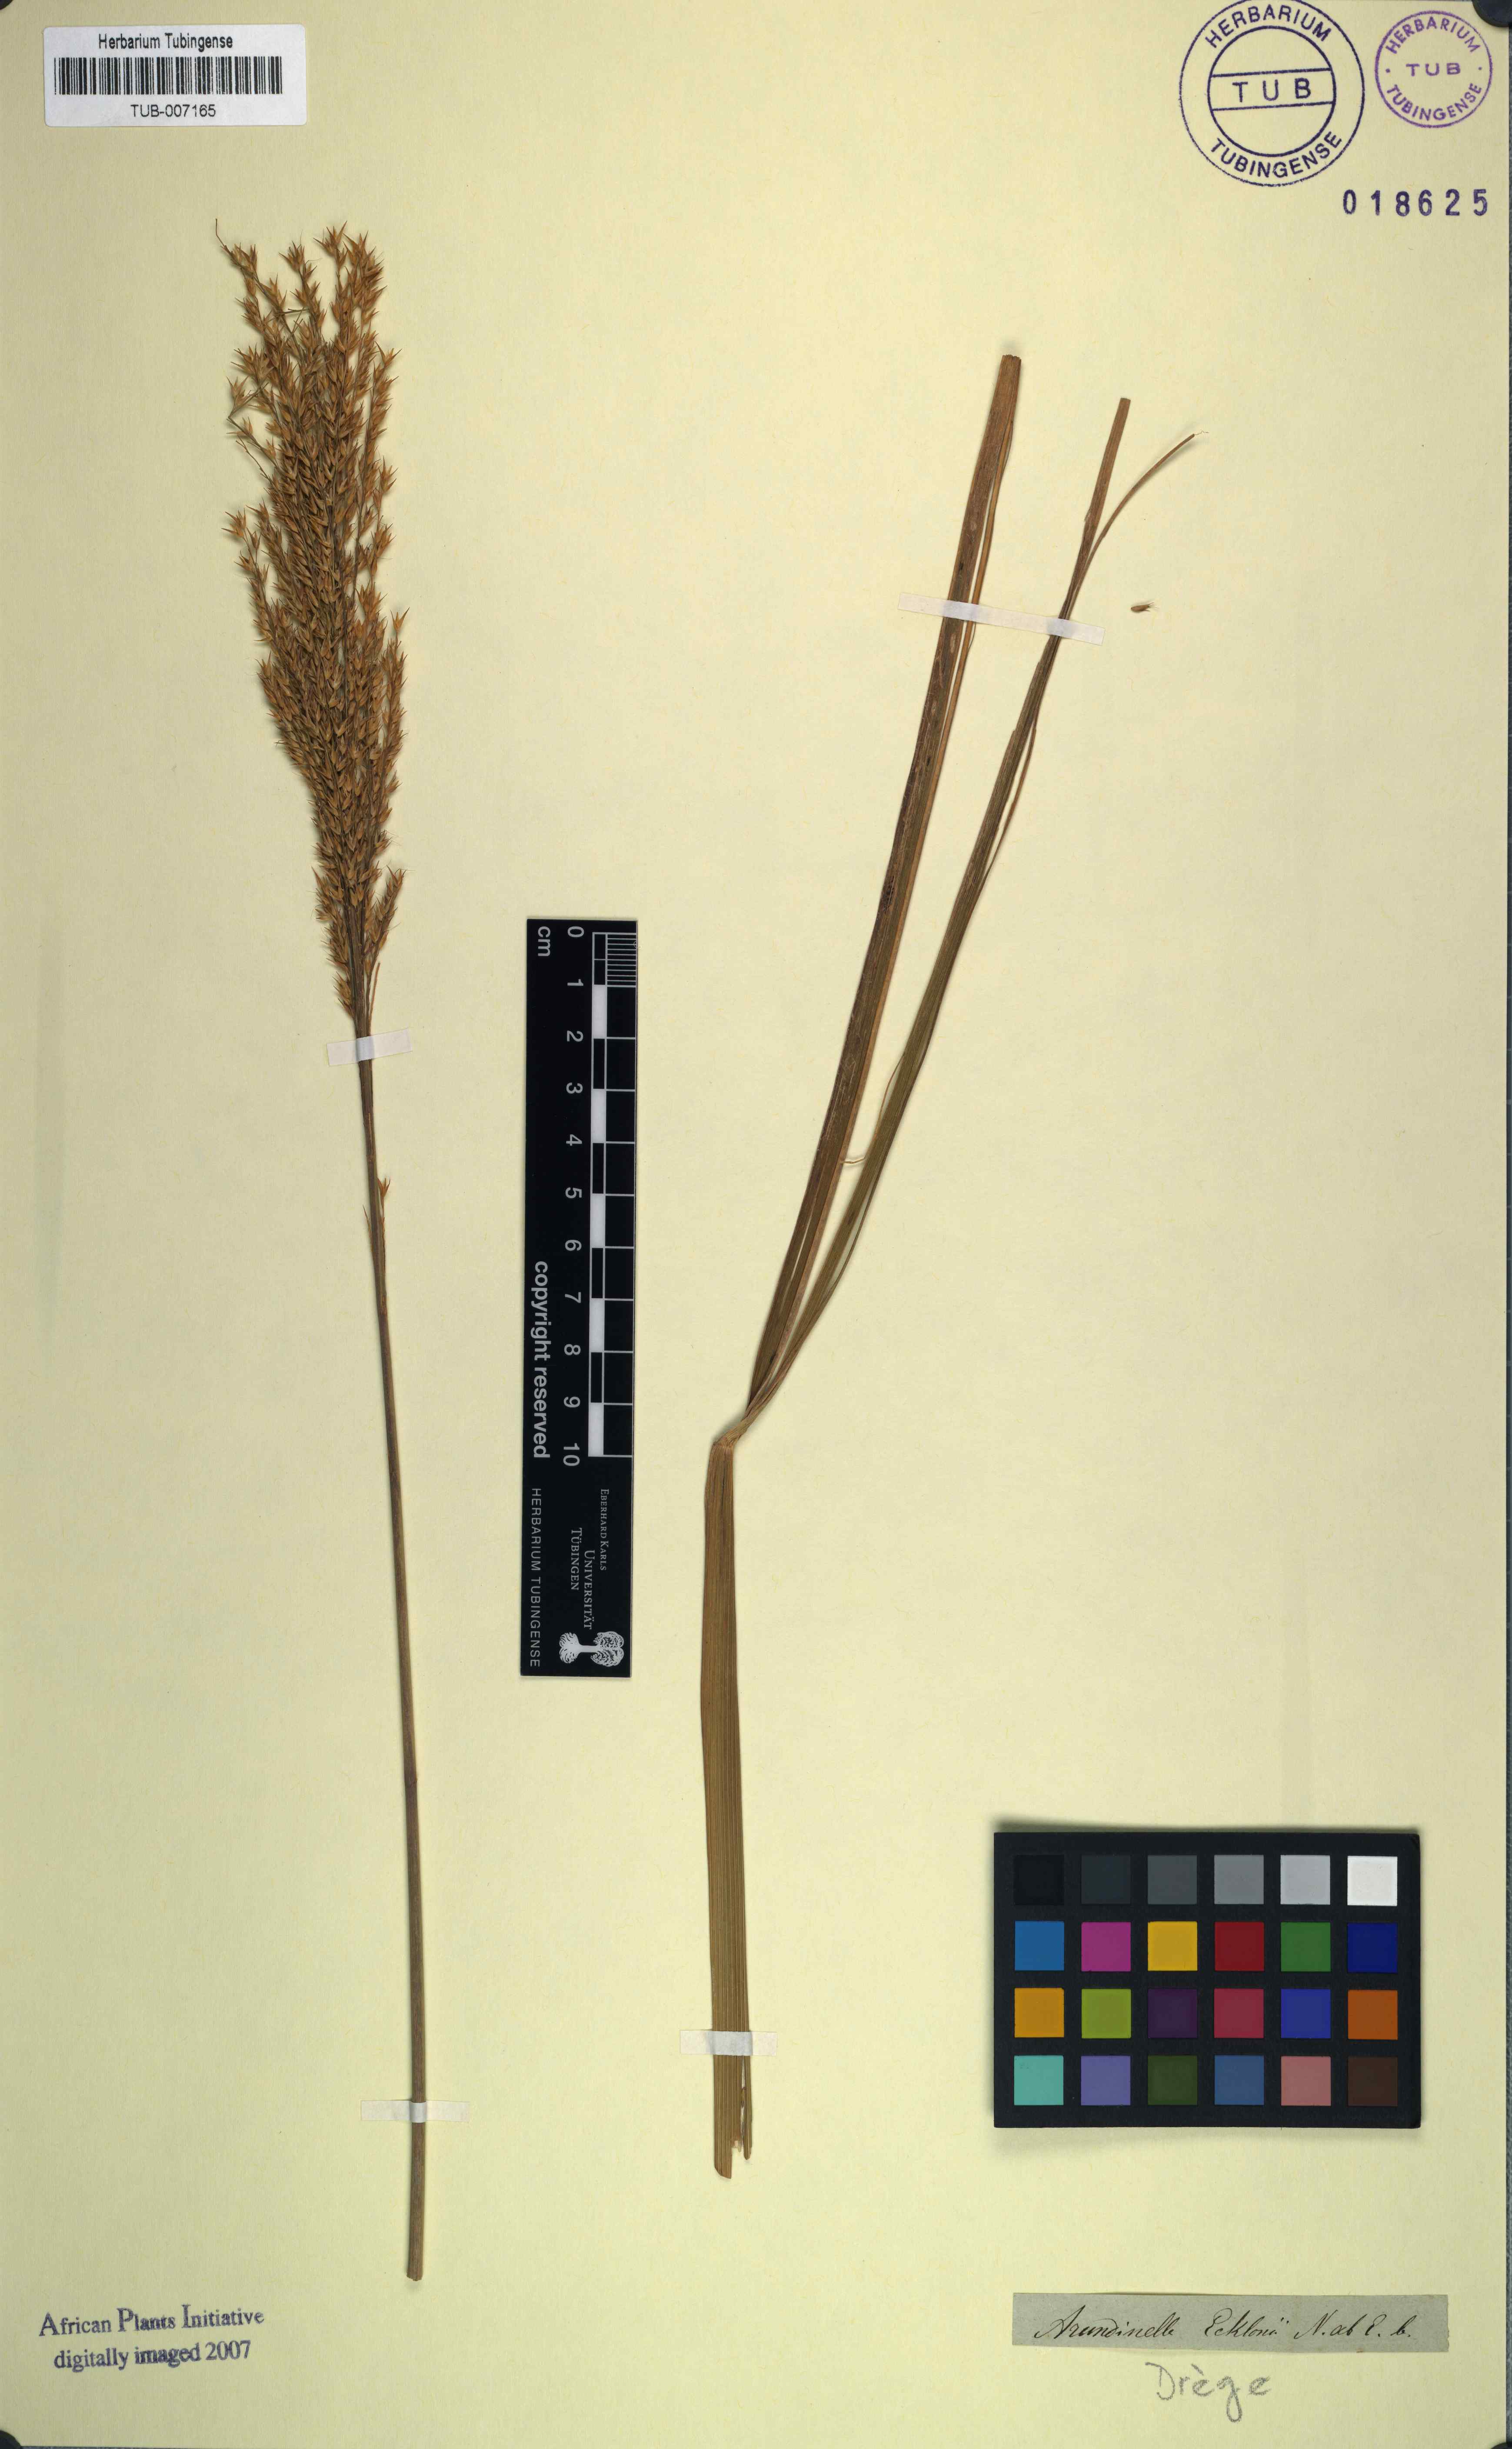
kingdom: Plantae
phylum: Tracheophyta
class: Liliopsida
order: Poales
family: Poaceae
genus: Arundinella
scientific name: Arundinella nepalensis
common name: Reed grass
